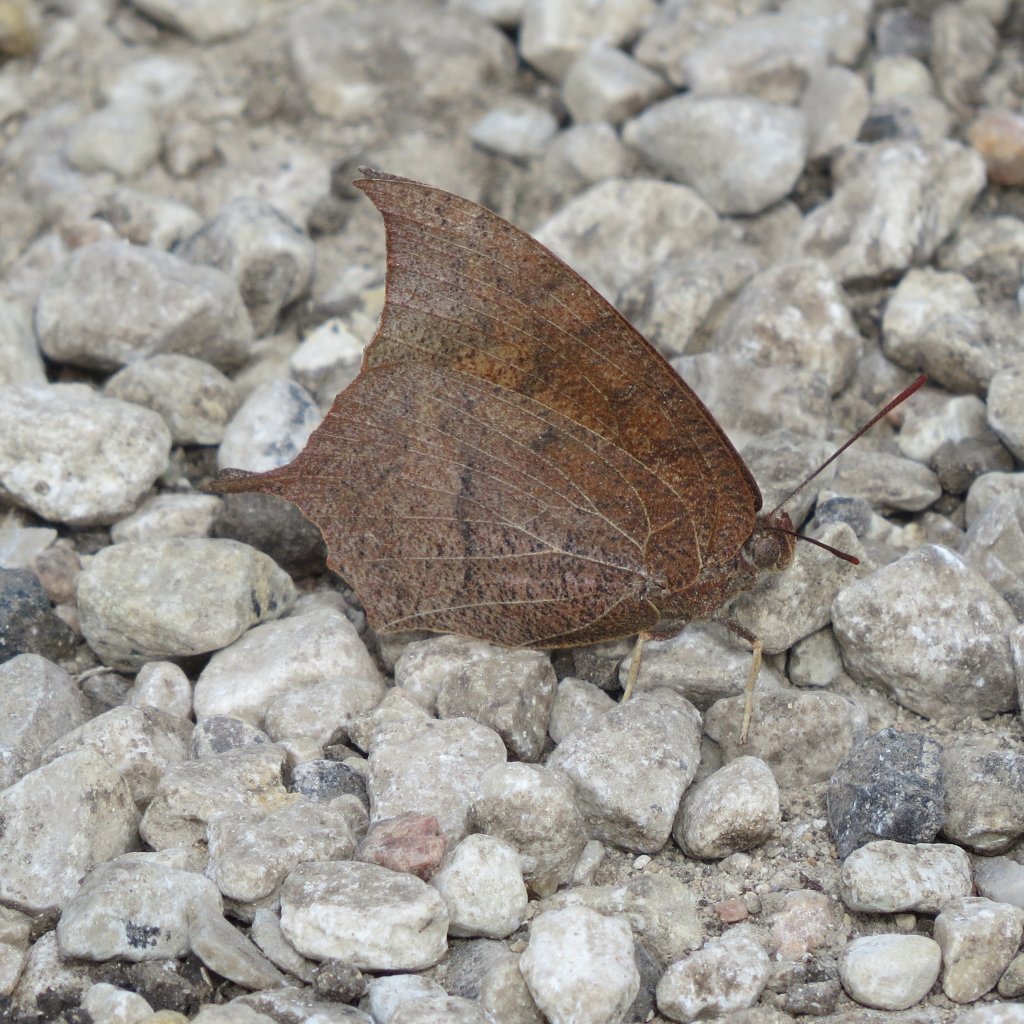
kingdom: Animalia
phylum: Arthropoda
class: Insecta
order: Lepidoptera
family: Nymphalidae
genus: Anaea
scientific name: Anaea andria
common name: Goatweed Leafwing
